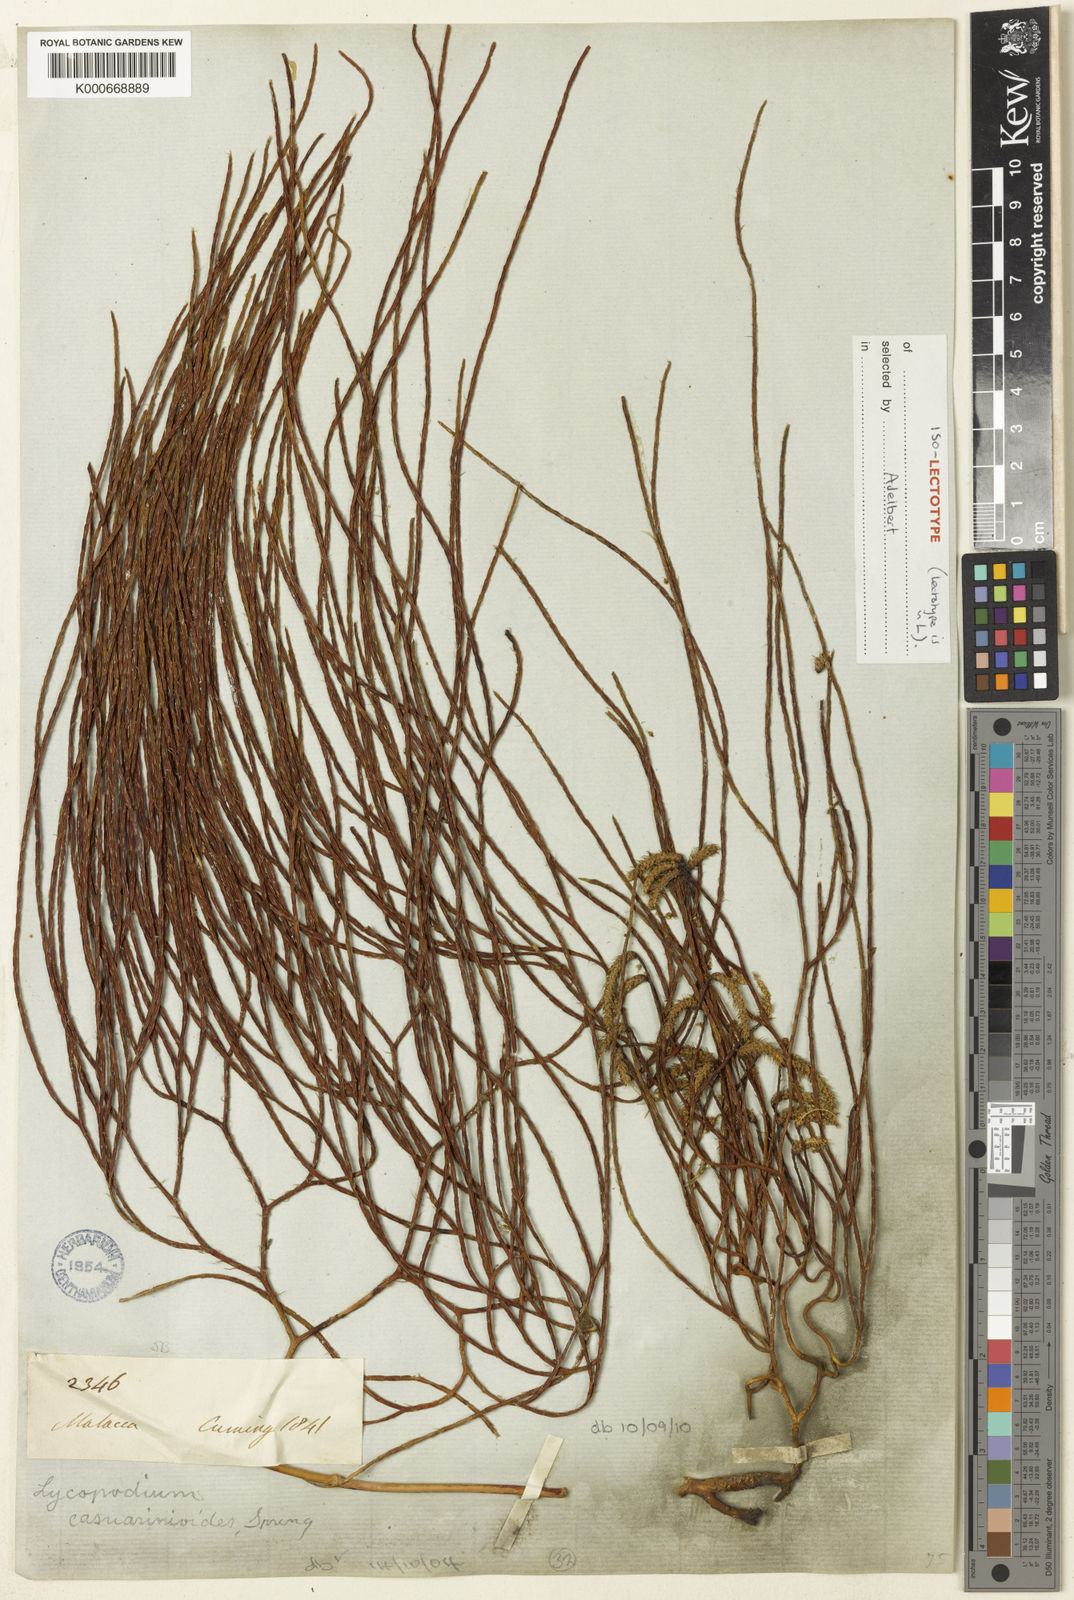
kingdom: Plantae
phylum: Tracheophyta
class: Lycopodiopsida
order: Lycopodiales
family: Lycopodiaceae
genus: Lycopodiastrum
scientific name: Lycopodiastrum casuarinoides
